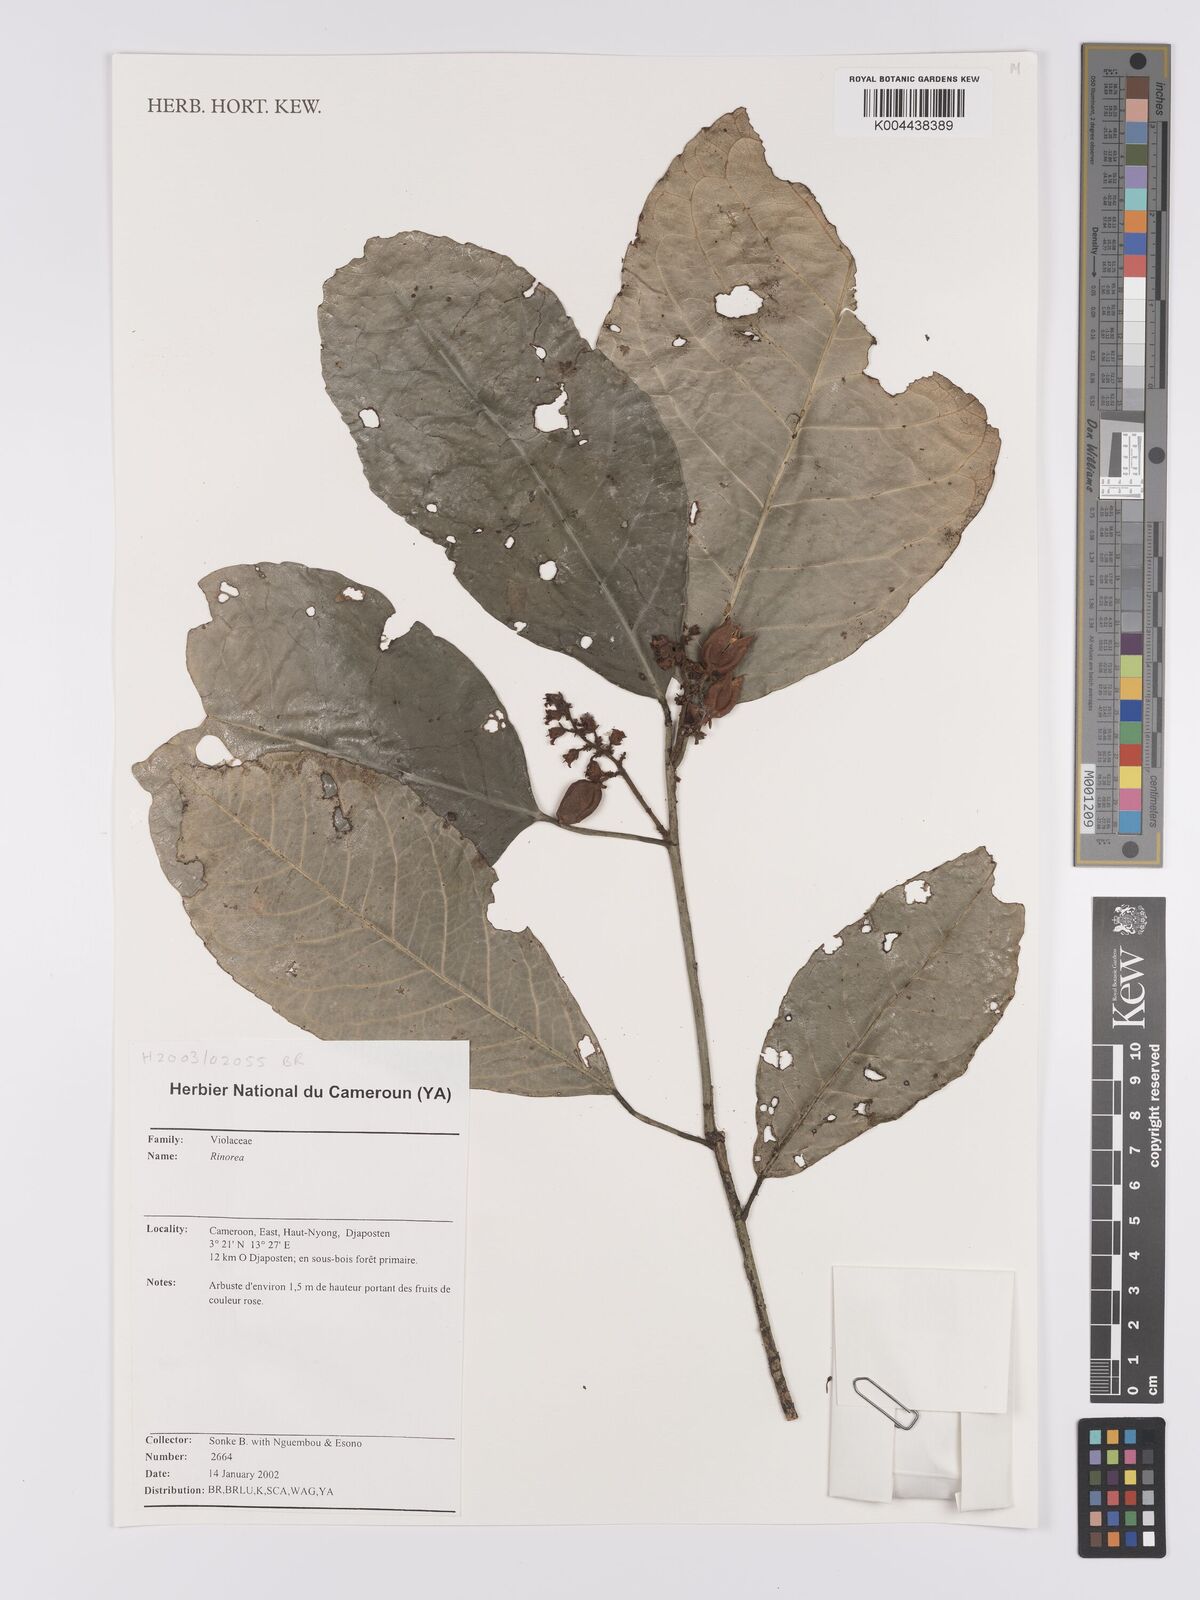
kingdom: Plantae
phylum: Tracheophyta
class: Magnoliopsida
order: Malpighiales
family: Violaceae
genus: Rinorea
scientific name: Rinorea
